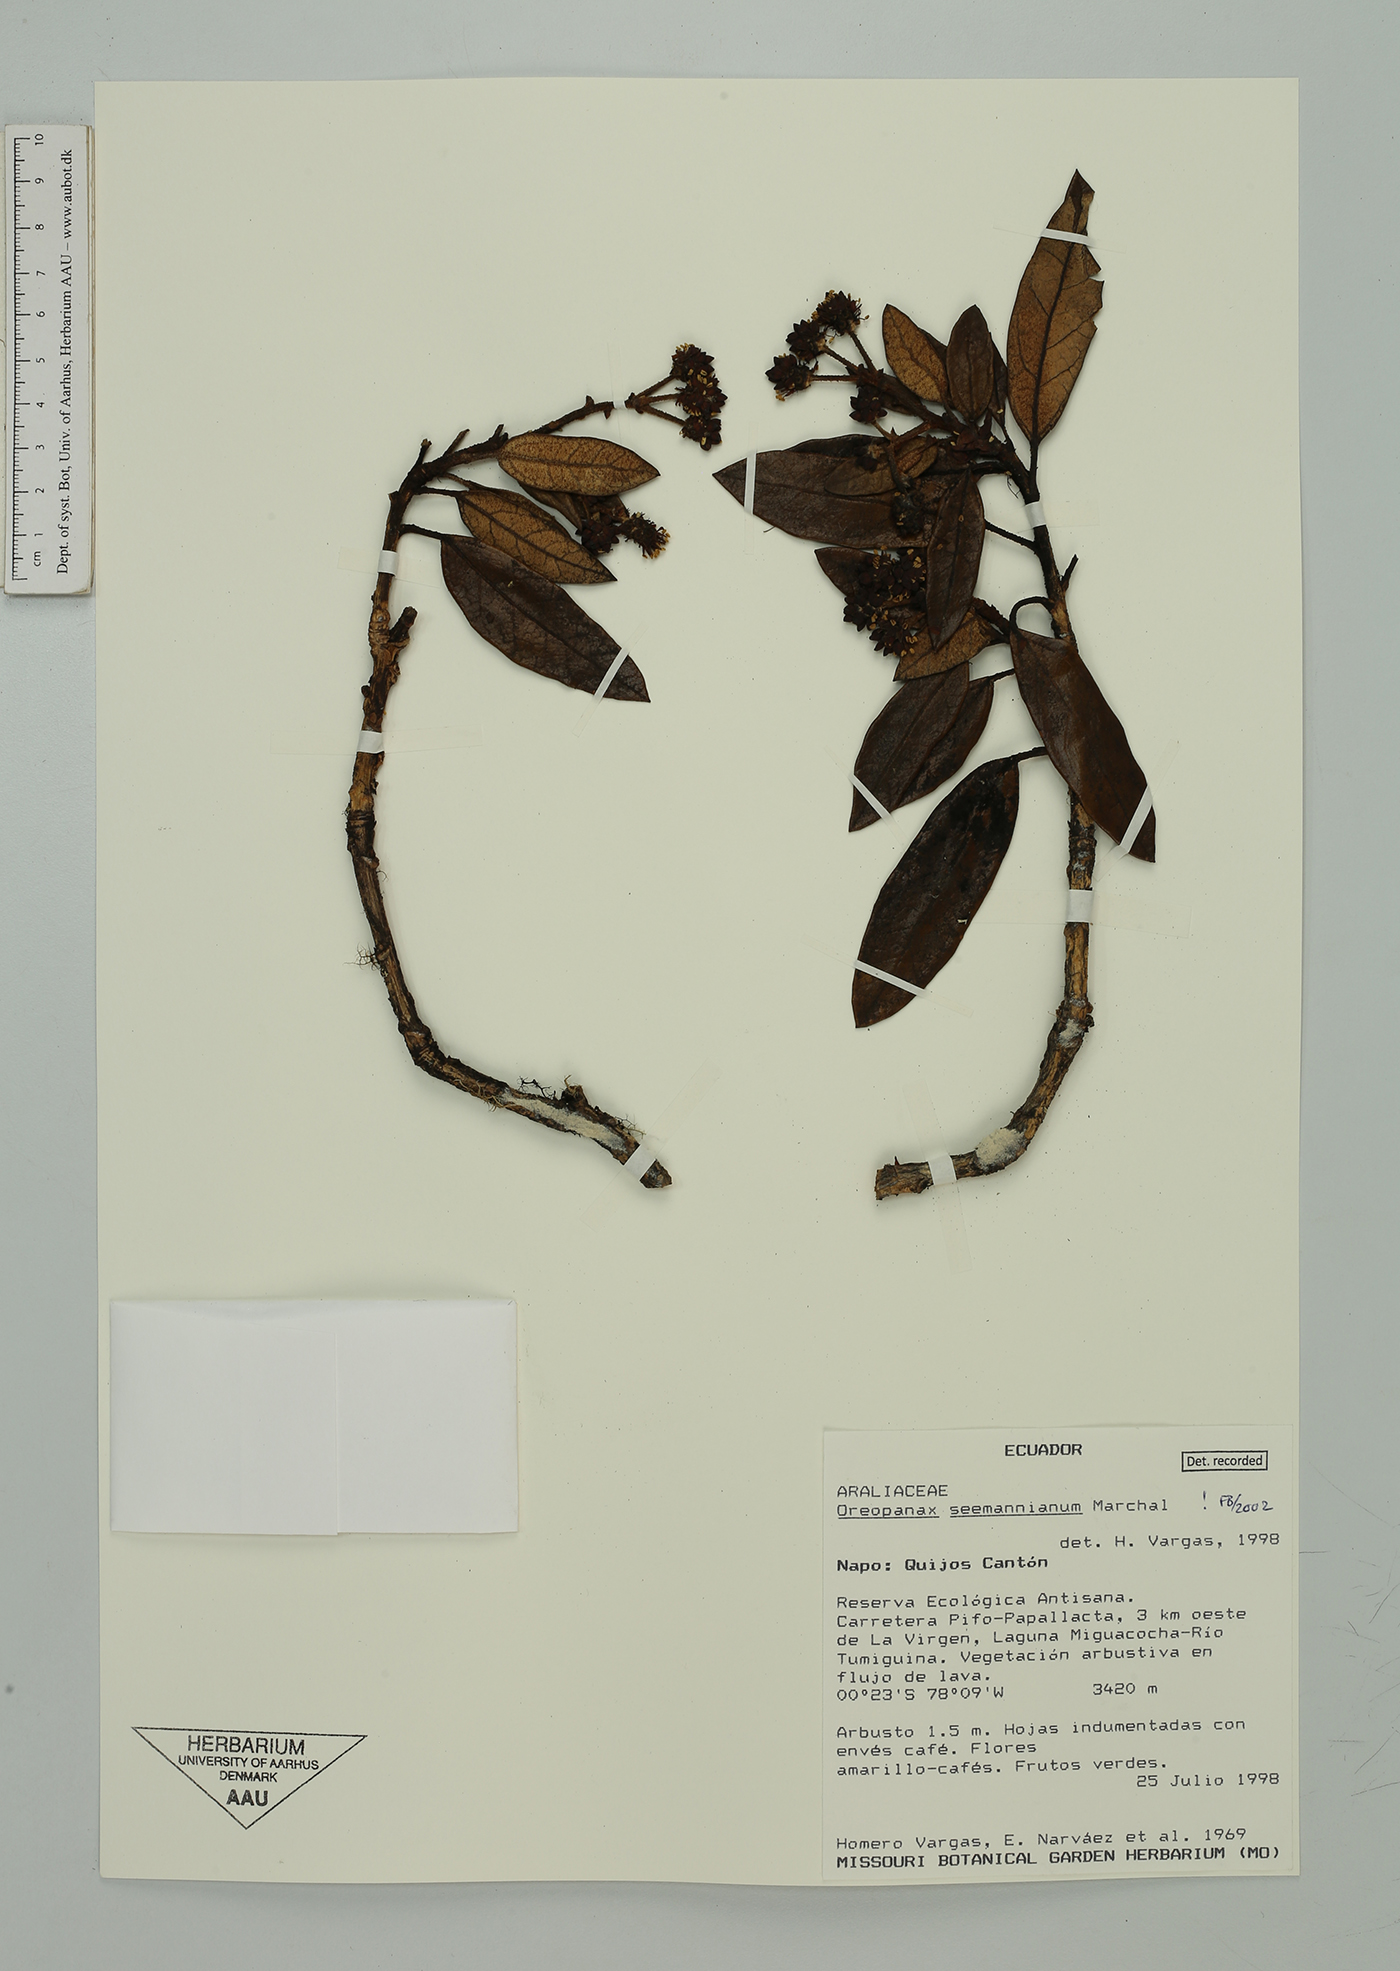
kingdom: Plantae
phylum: Tracheophyta
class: Magnoliopsida
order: Apiales
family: Araliaceae
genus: Oreopanax
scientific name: Oreopanax seemannianus
